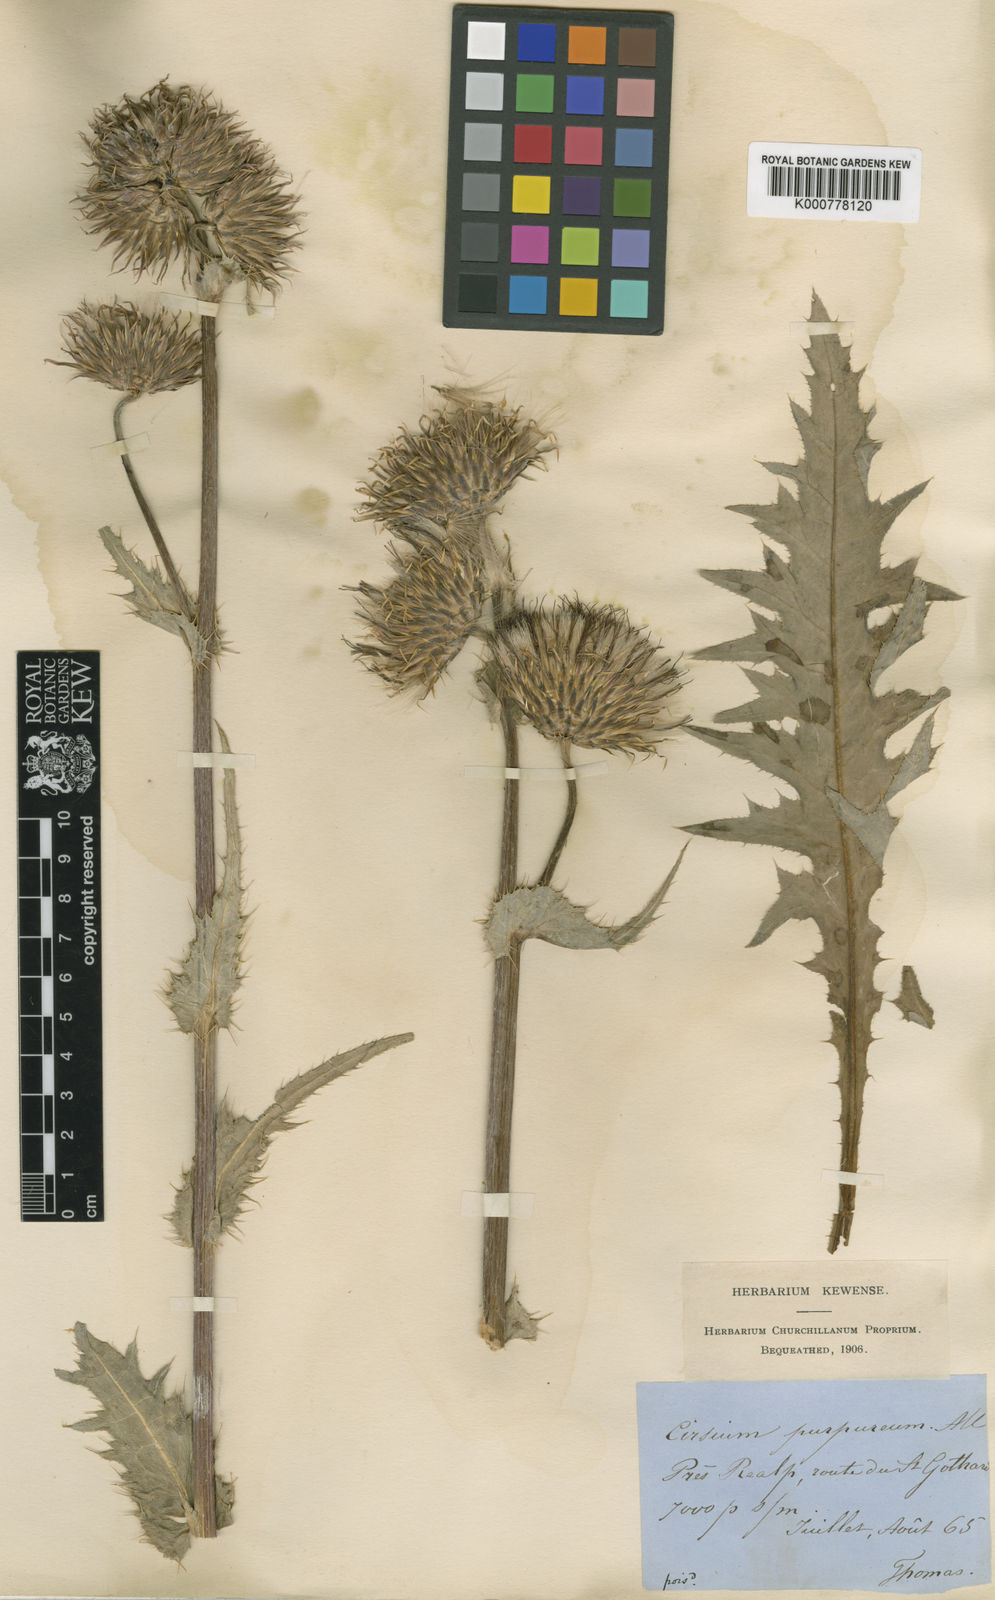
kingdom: Plantae
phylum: Tracheophyta
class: Magnoliopsida
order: Asterales
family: Asteraceae
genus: Cirsium
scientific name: Cirsium heterophyllum
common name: Melancholy thistle
